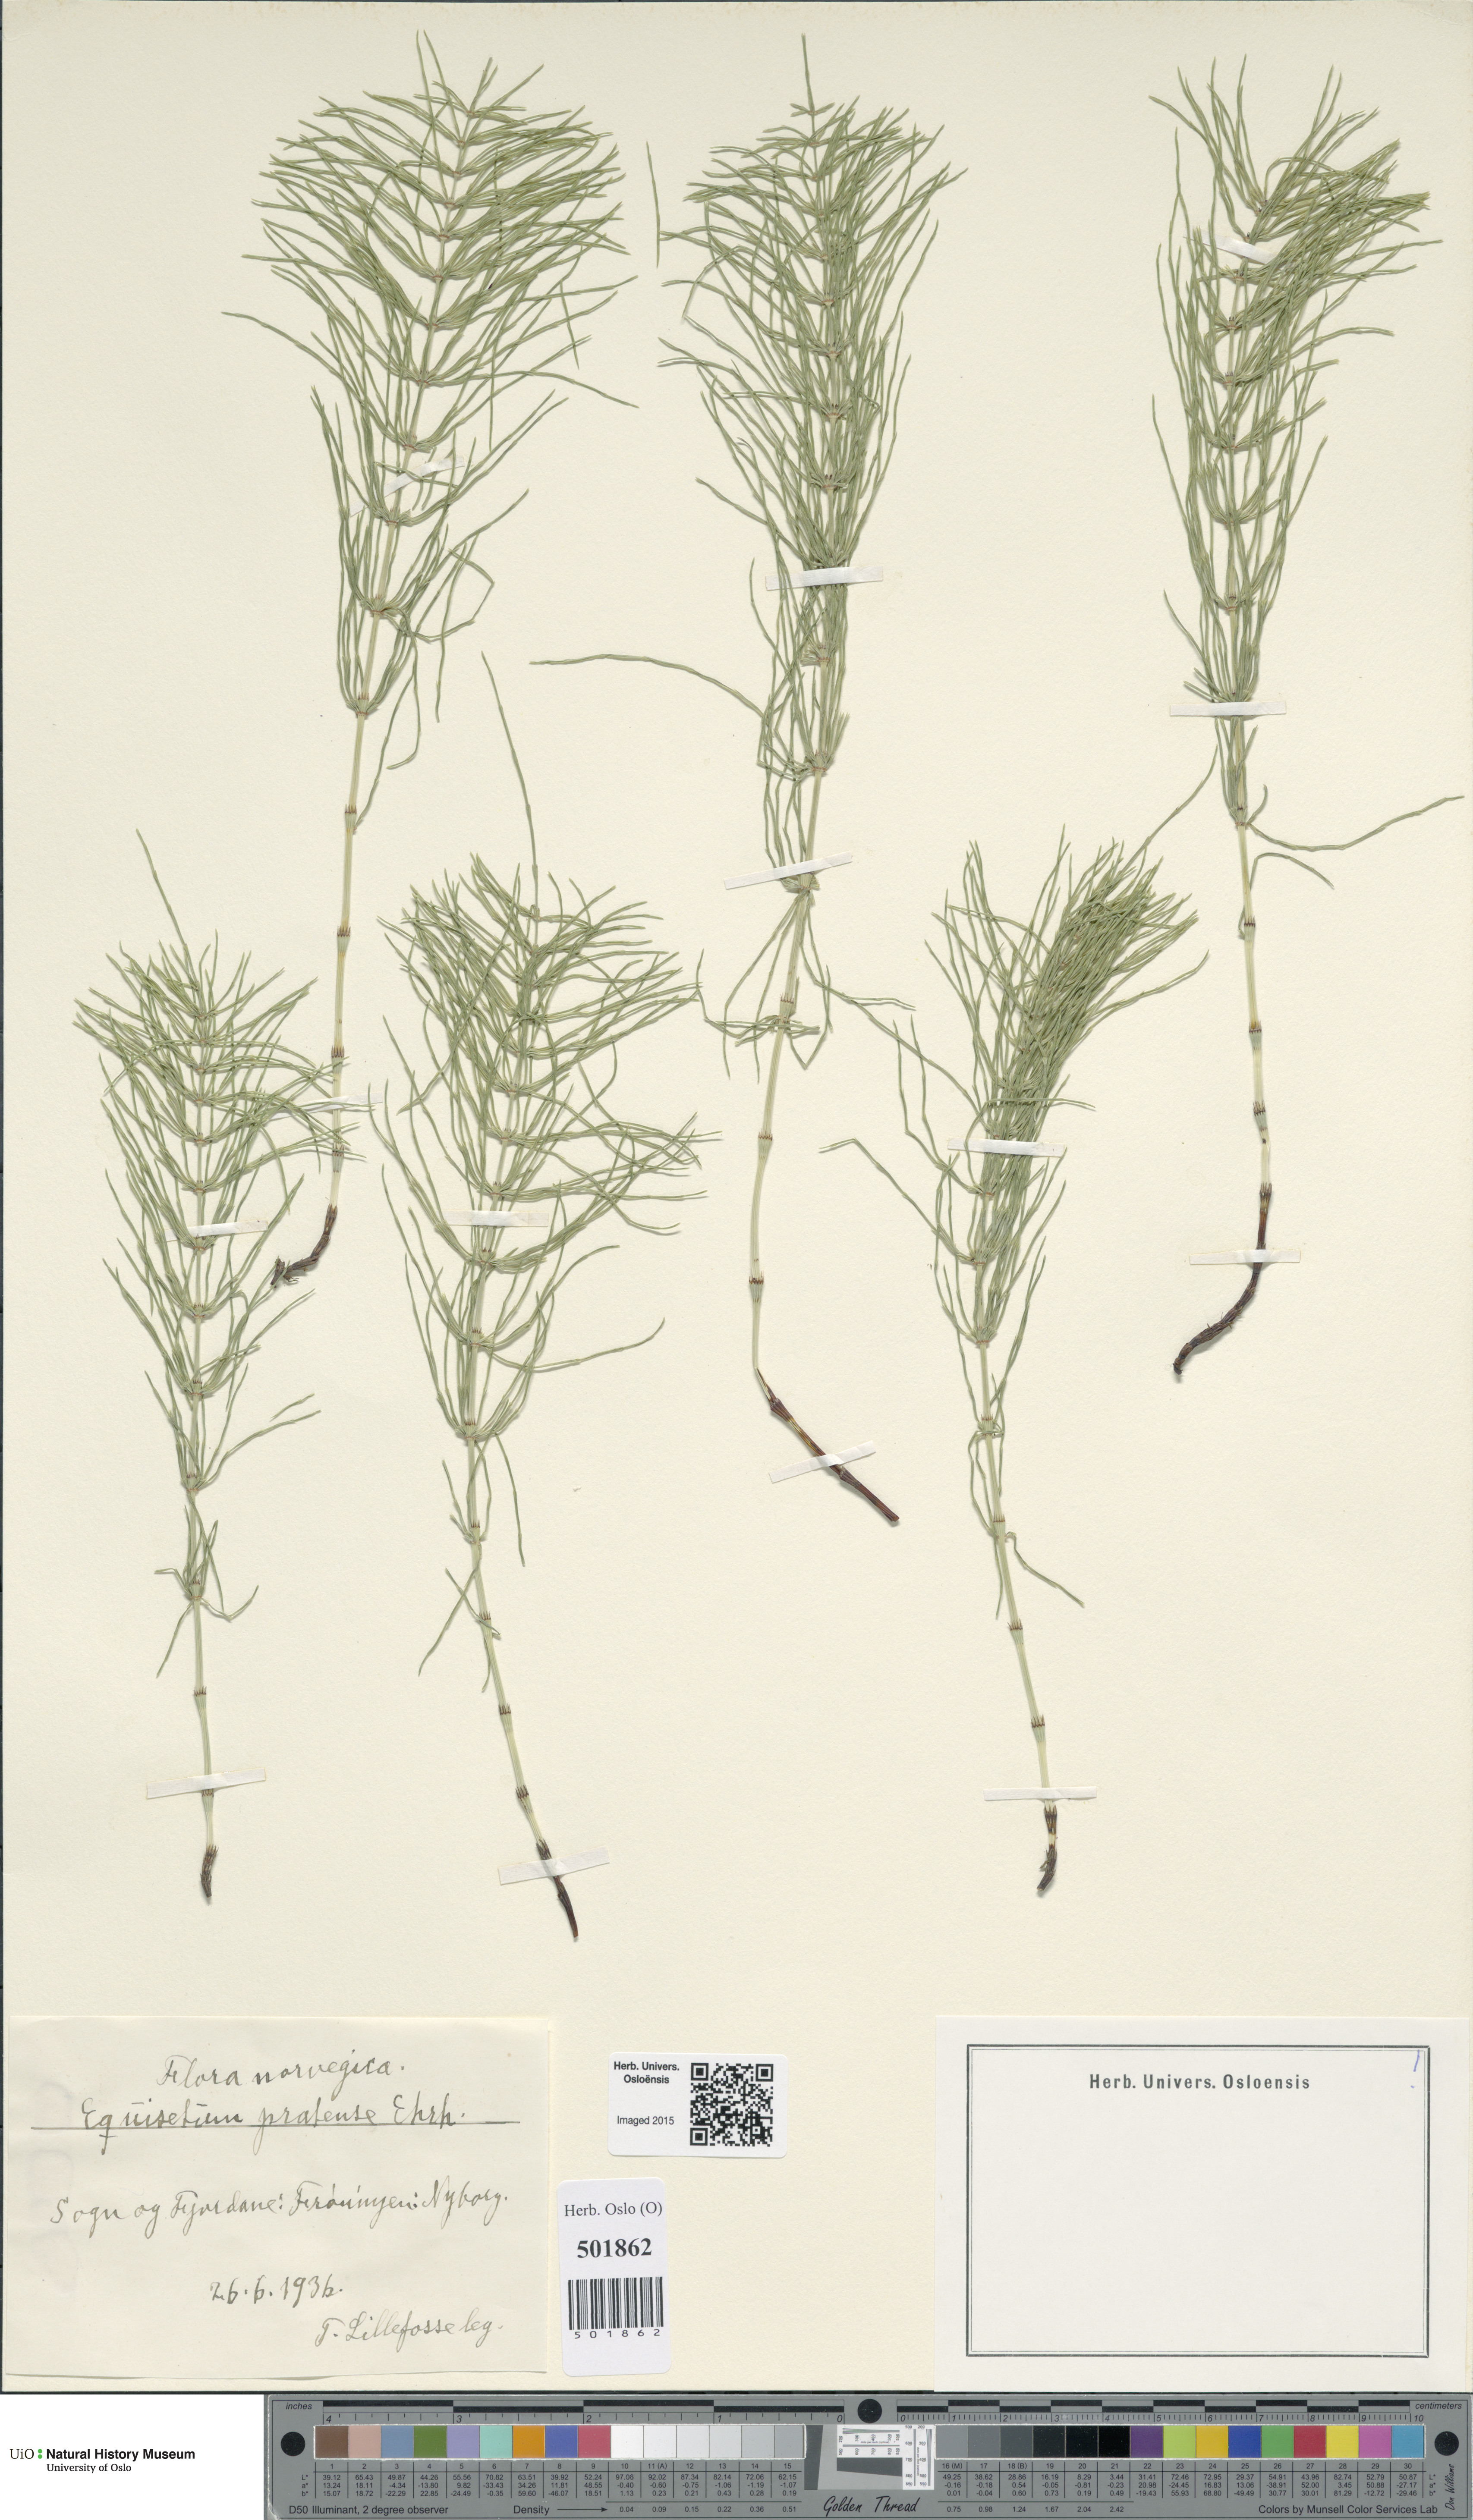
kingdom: Plantae
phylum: Tracheophyta
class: Polypodiopsida
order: Equisetales
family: Equisetaceae
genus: Equisetum
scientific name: Equisetum pratense
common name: Meadow horsetail
